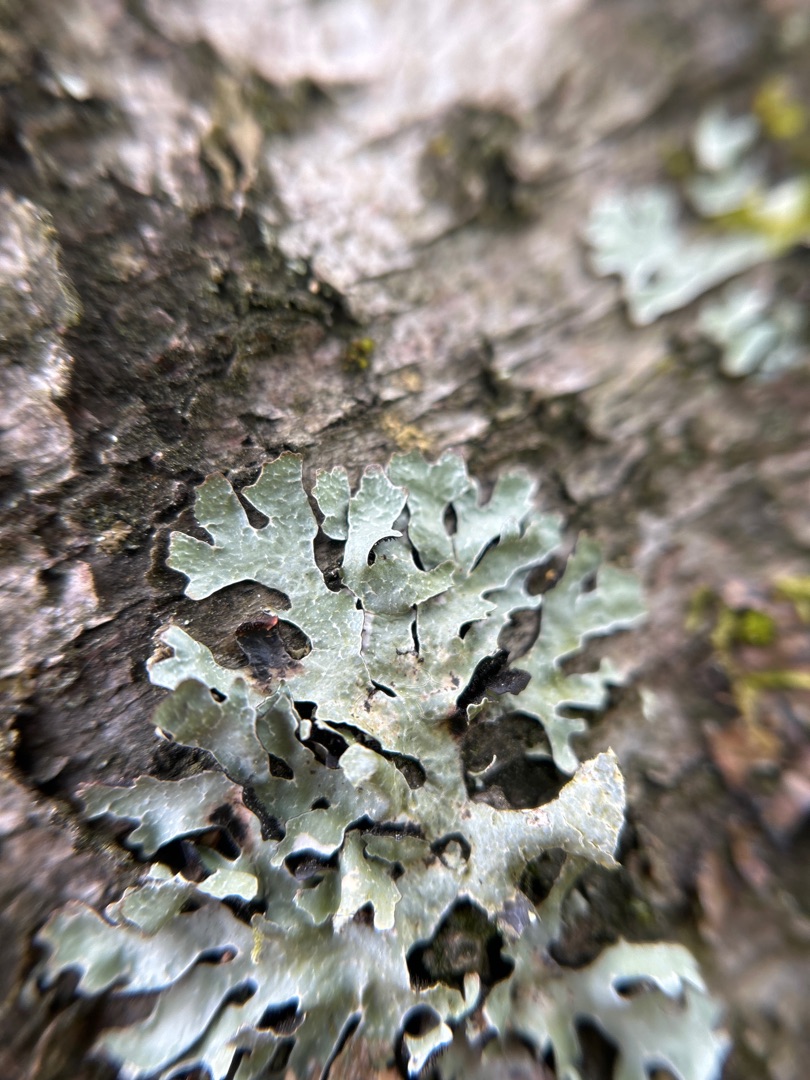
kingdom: Fungi
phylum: Ascomycota
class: Lecanoromycetes
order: Lecanorales
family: Parmeliaceae
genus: Parmelia
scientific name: Parmelia sulcata
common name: Rynket skållav
